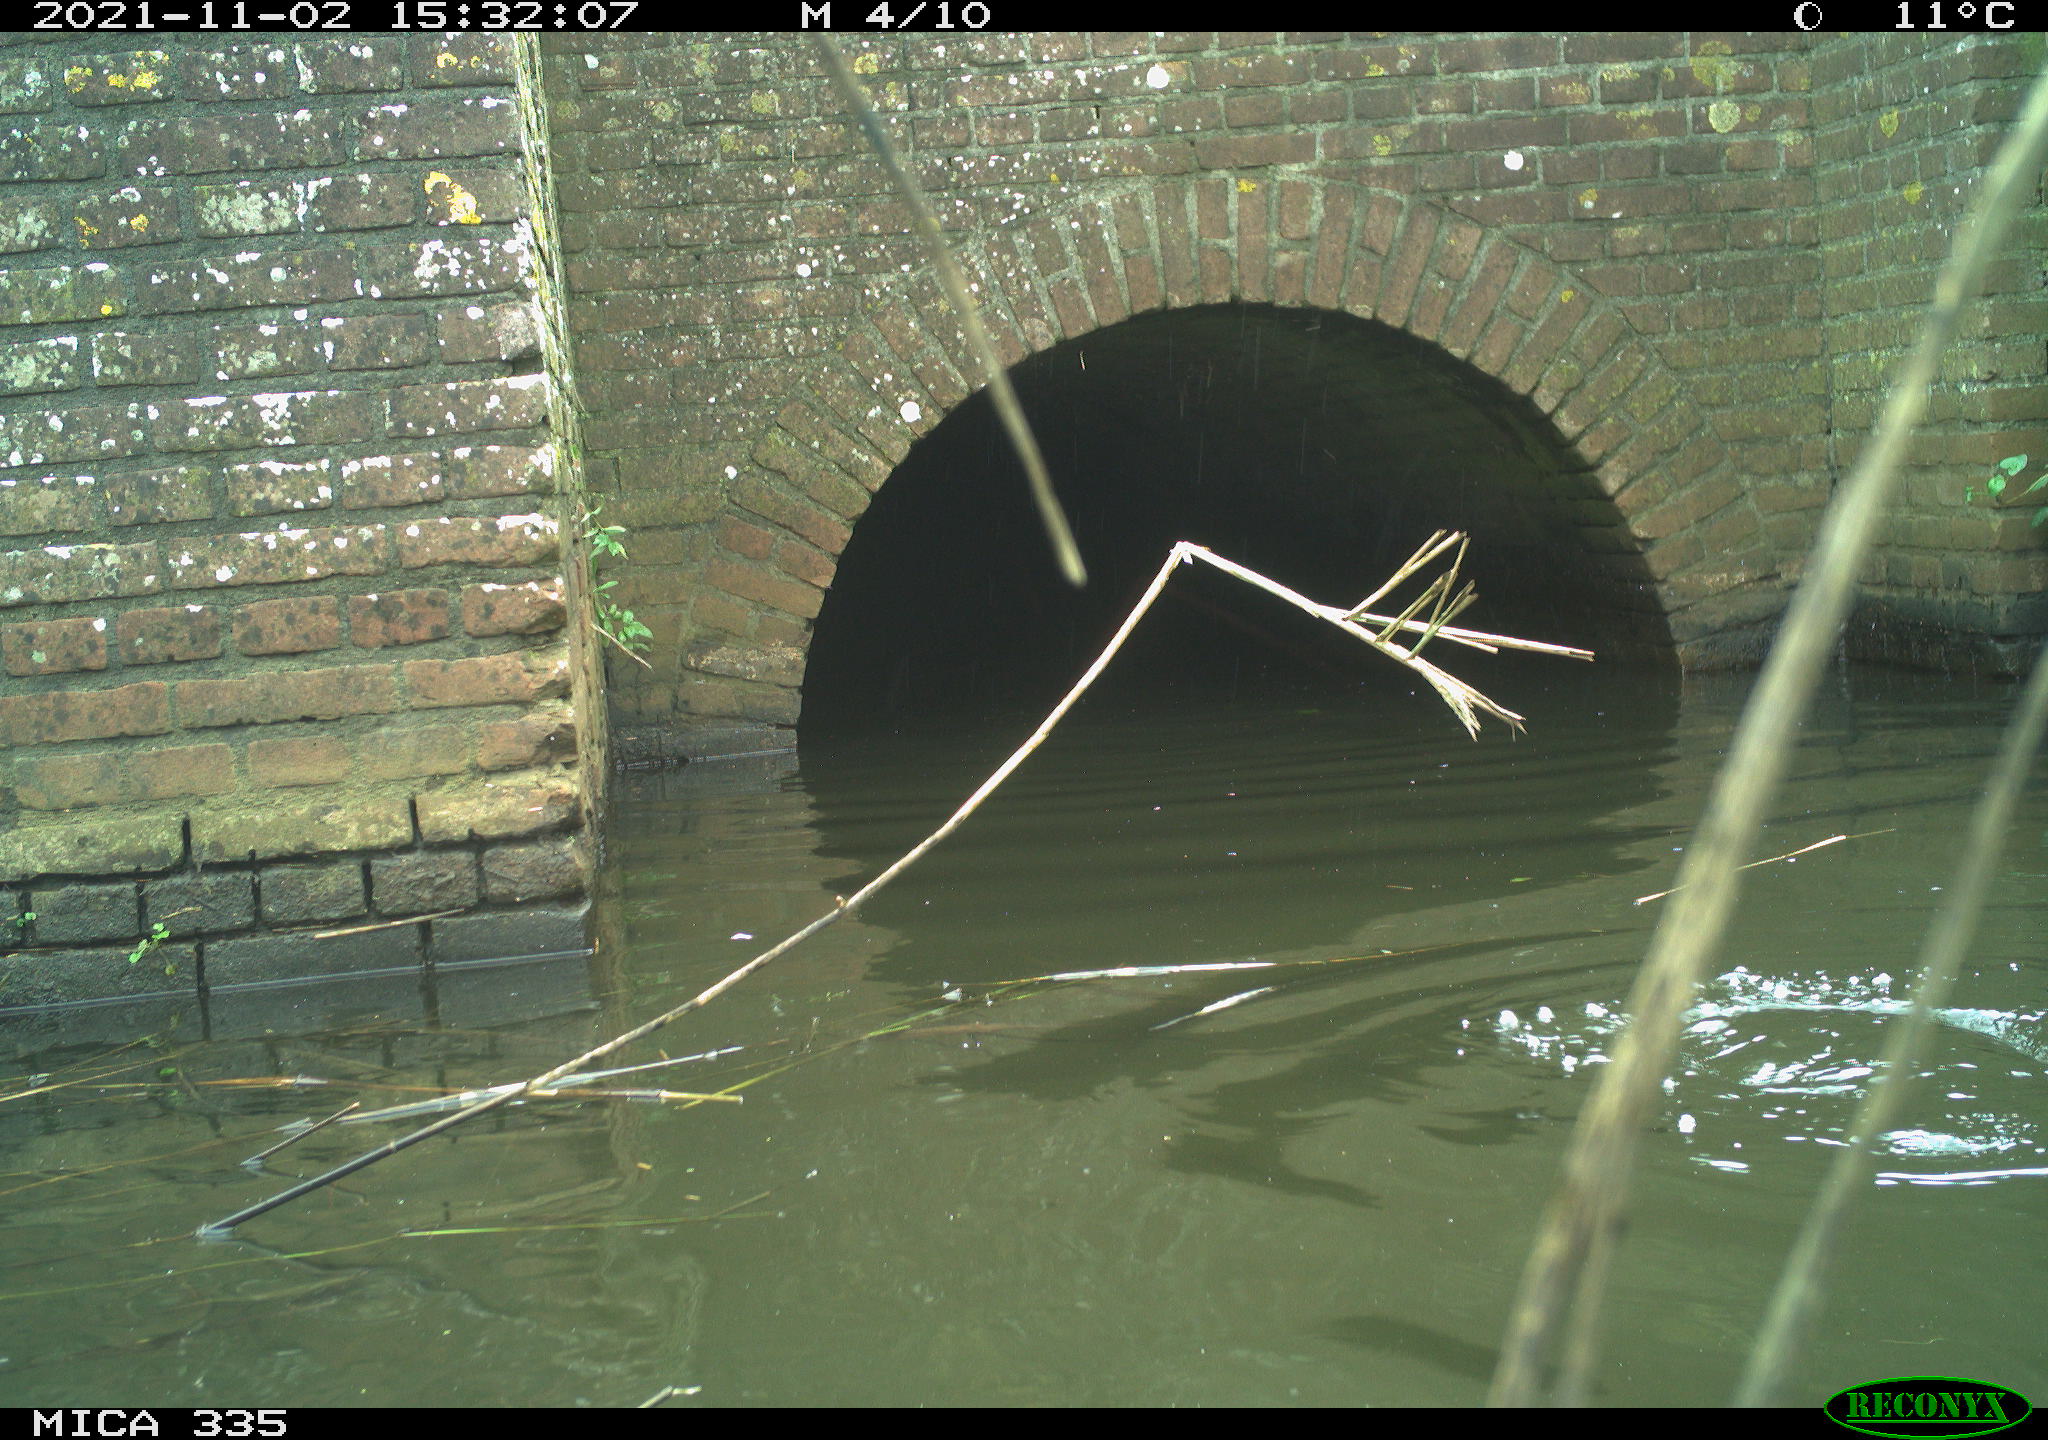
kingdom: Animalia
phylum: Chordata
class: Aves
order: Suliformes
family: Phalacrocoracidae
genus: Phalacrocorax
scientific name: Phalacrocorax carbo
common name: Great cormorant
